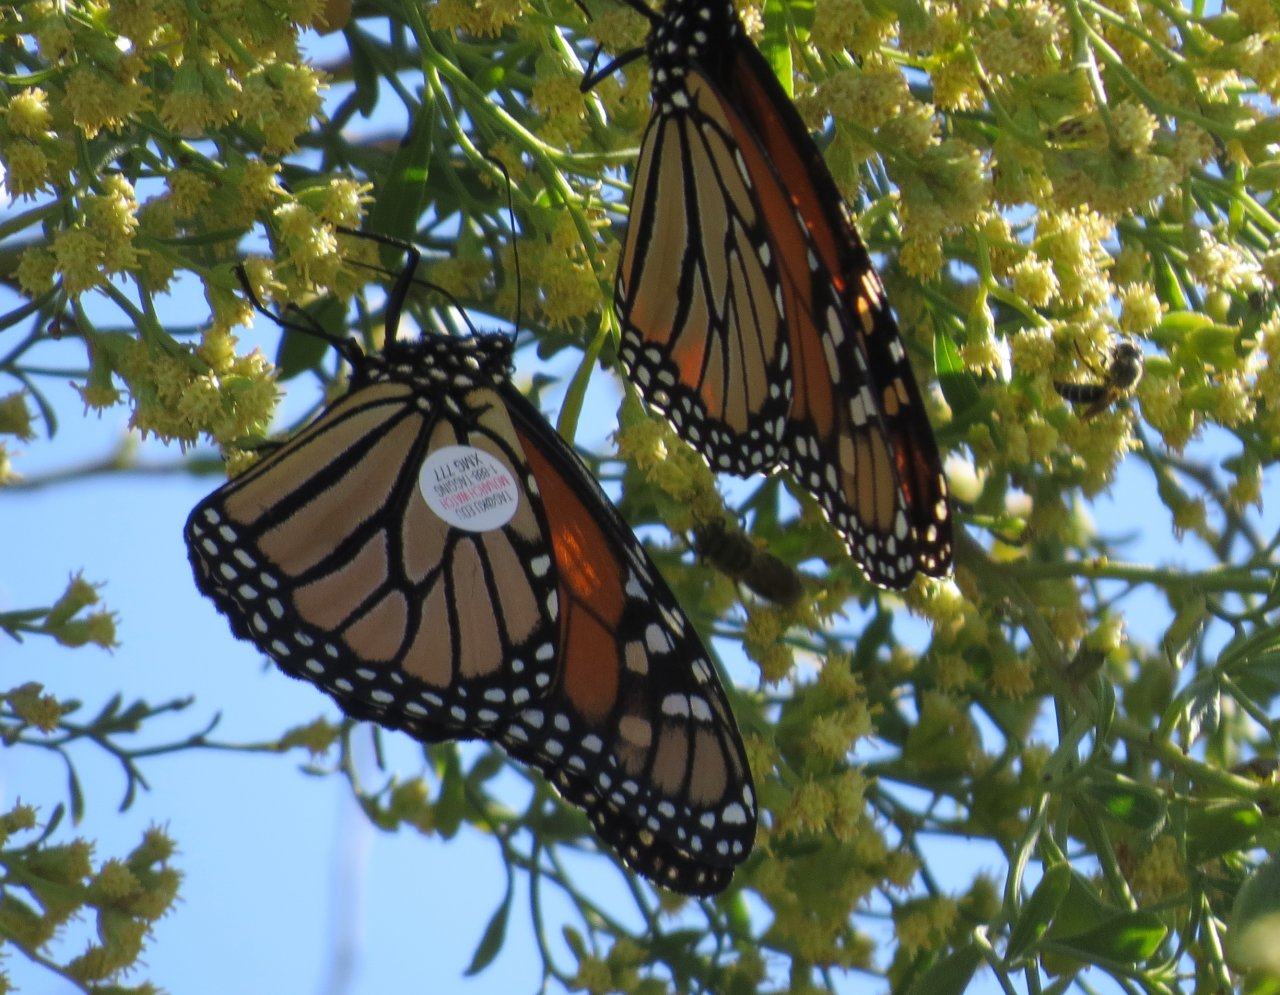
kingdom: Animalia
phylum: Arthropoda
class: Insecta
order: Lepidoptera
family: Nymphalidae
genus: Danaus
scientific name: Danaus plexippus
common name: Monarch
